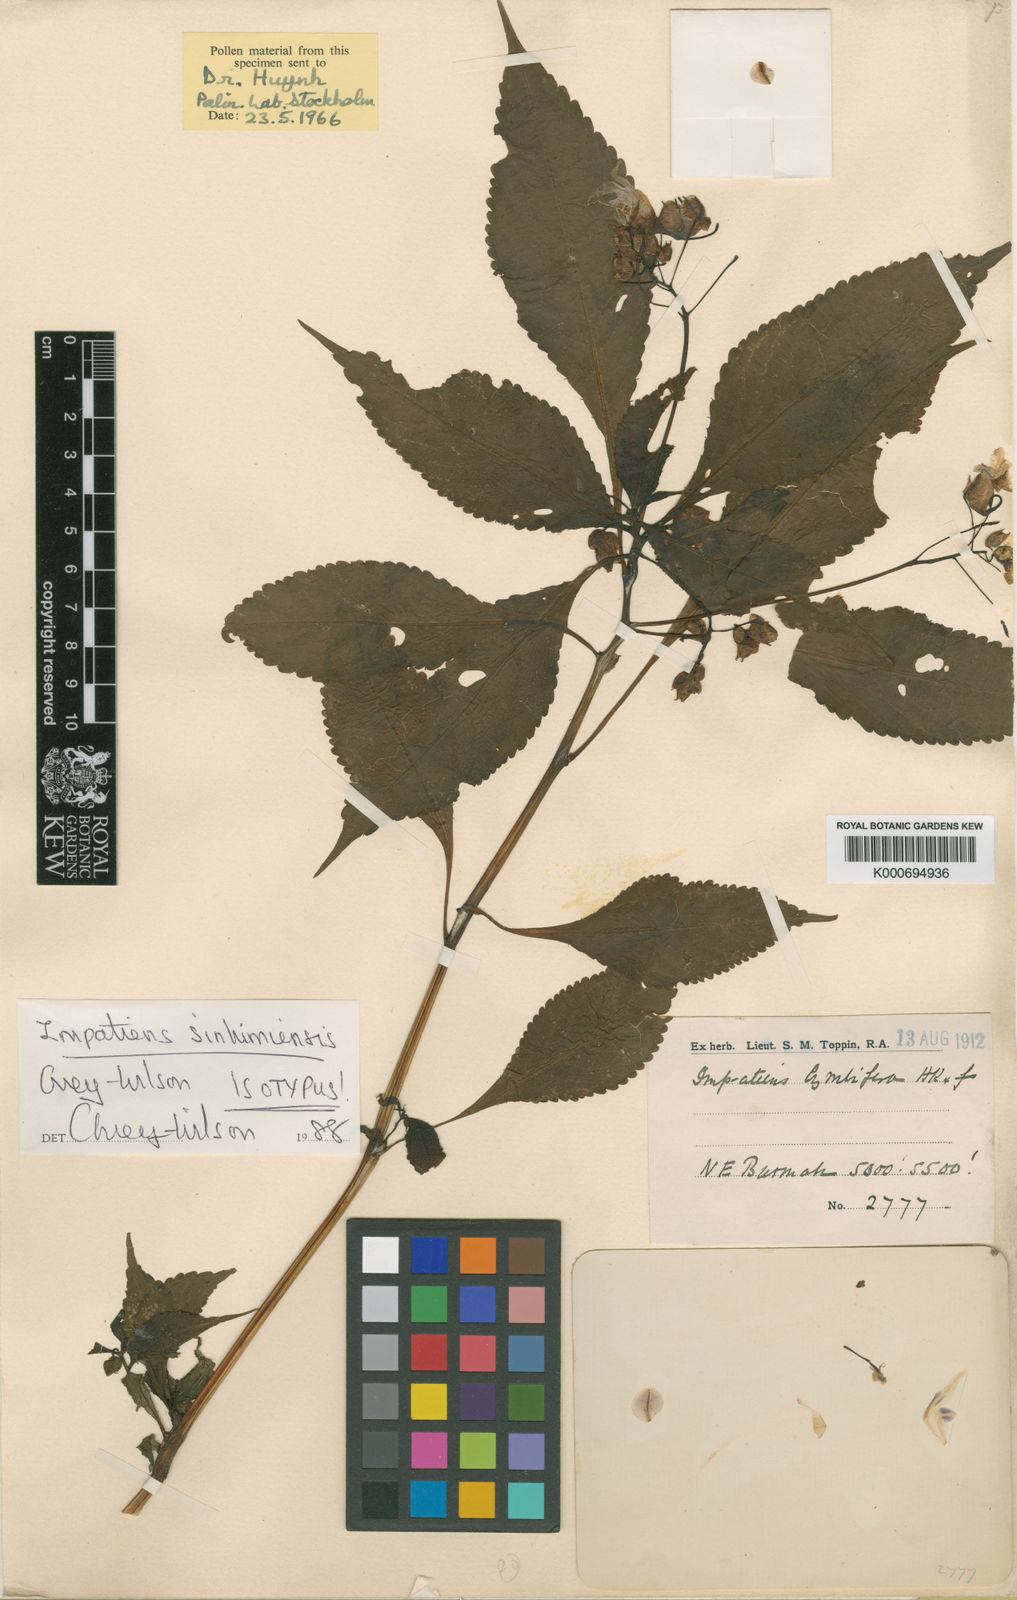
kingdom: Plantae
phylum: Tracheophyta
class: Magnoliopsida
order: Ericales
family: Balsaminaceae
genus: Impatiens
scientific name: Impatiens sinlumiensis
